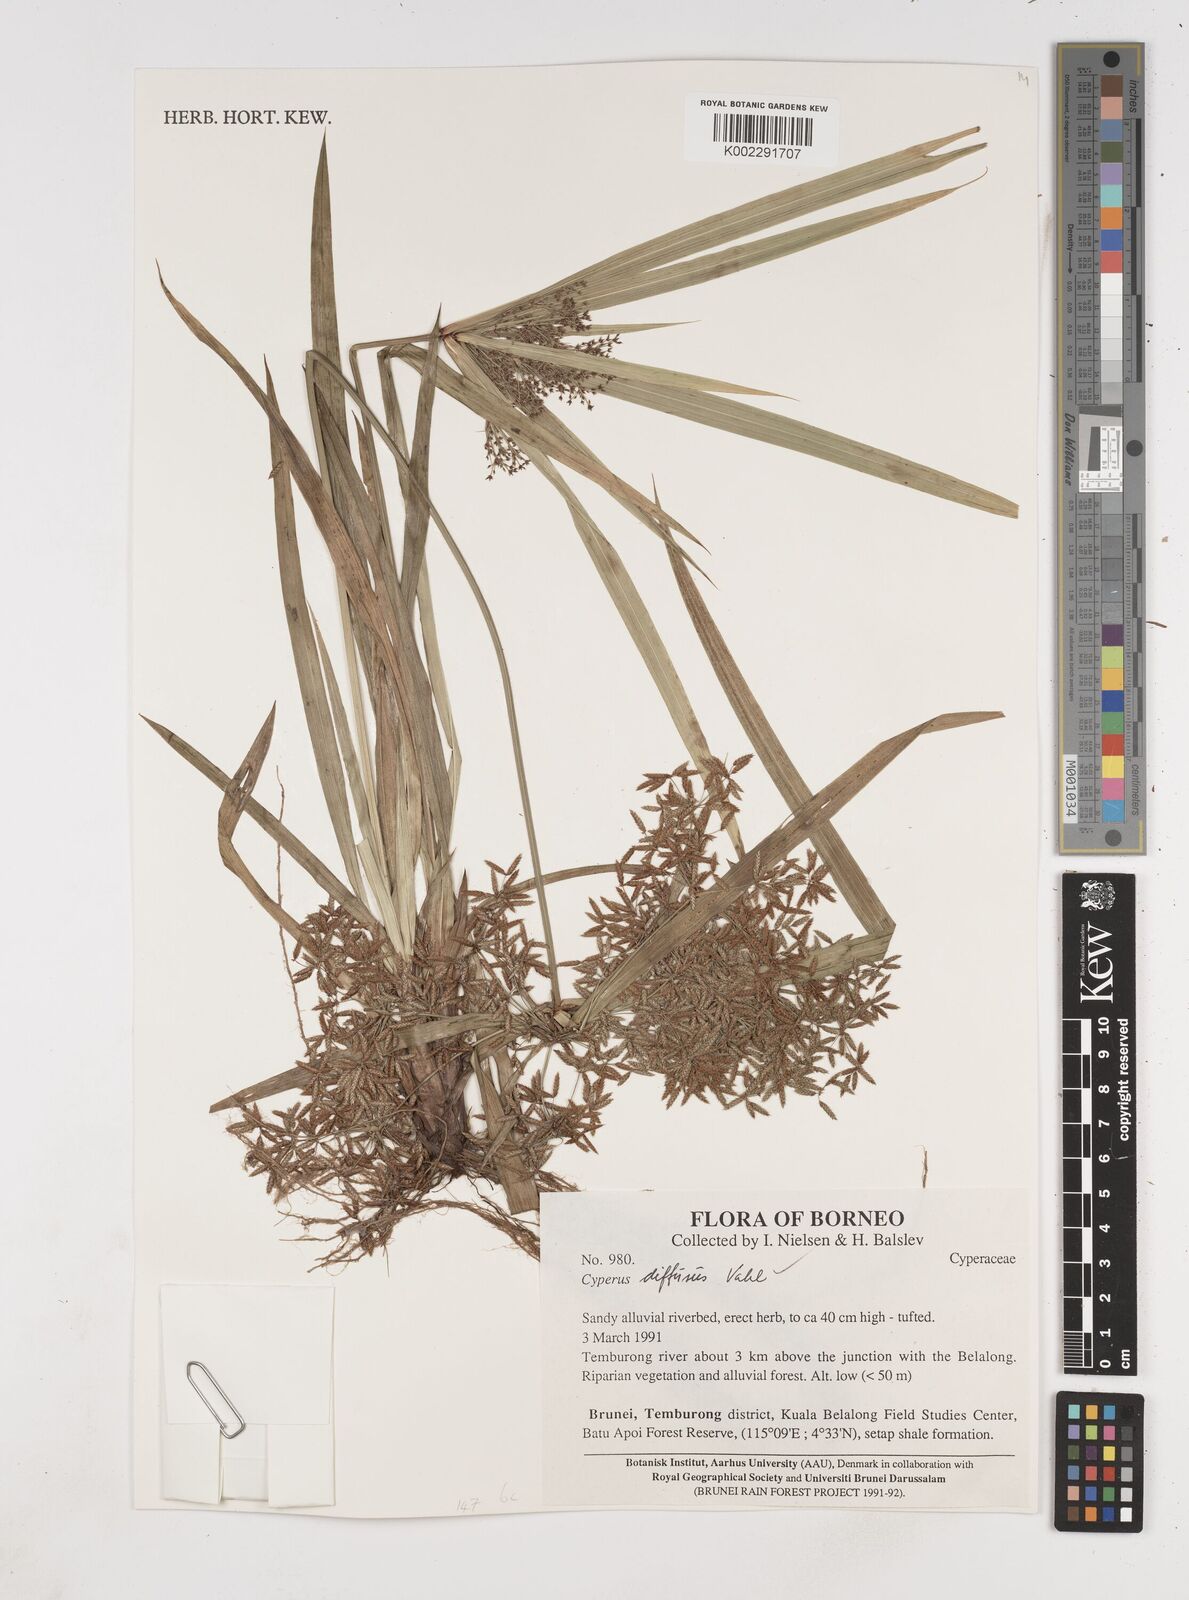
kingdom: Plantae
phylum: Tracheophyta
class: Liliopsida
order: Poales
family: Cyperaceae
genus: Cyperus
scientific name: Cyperus diffusus
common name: Dwarf umbrella grass
